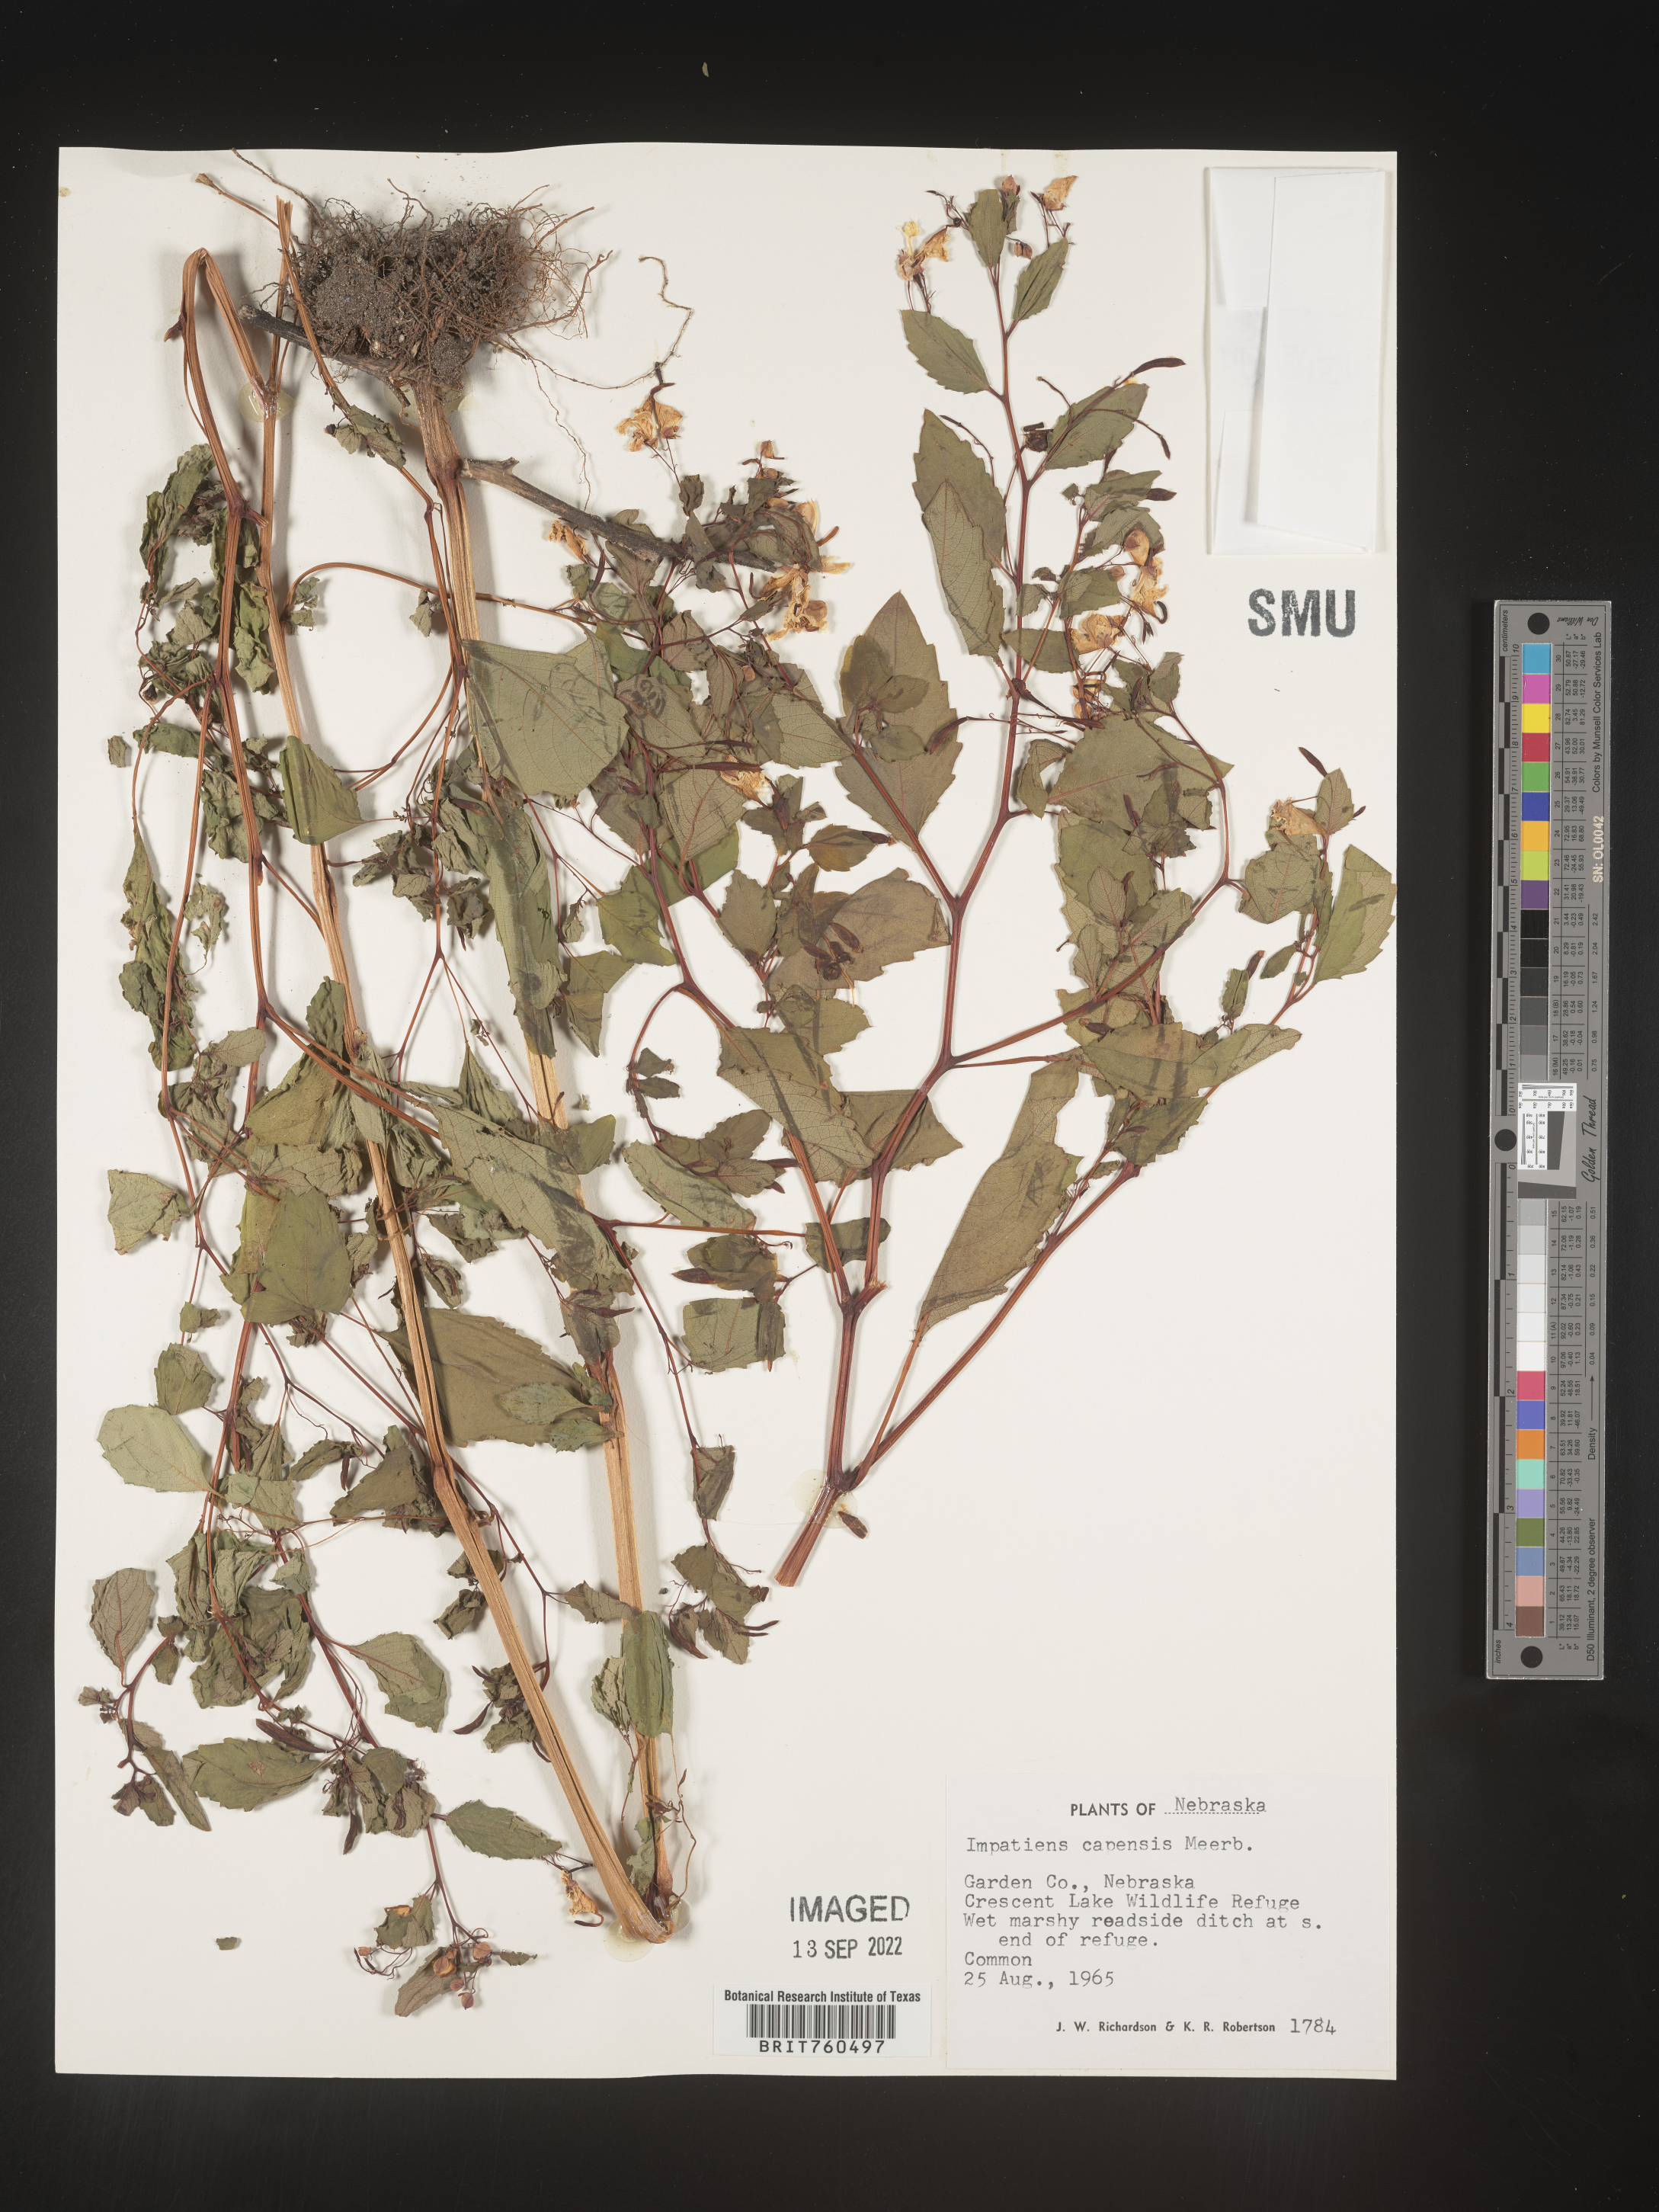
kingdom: Plantae
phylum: Tracheophyta
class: Magnoliopsida
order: Ericales
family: Balsaminaceae
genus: Impatiens
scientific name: Impatiens capensis
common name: Orange balsam
